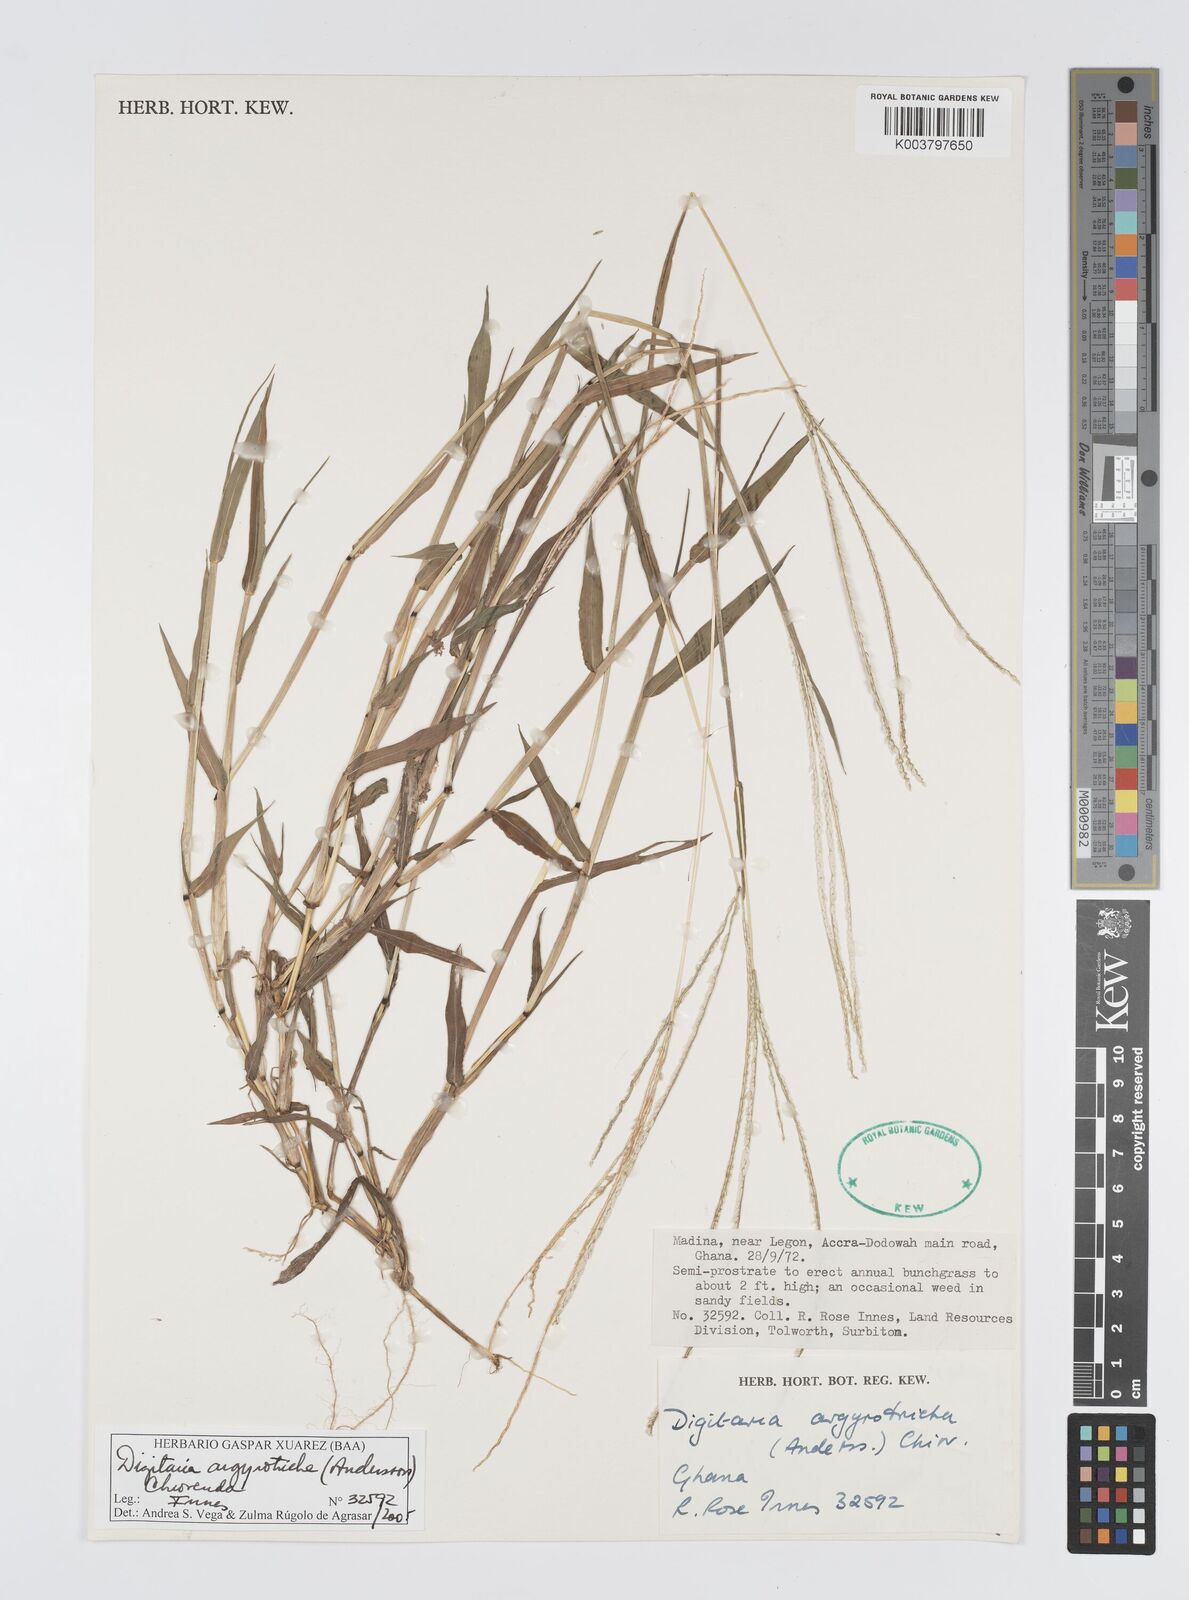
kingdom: Plantae
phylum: Tracheophyta
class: Liliopsida
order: Poales
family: Poaceae
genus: Digitaria
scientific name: Digitaria argyrotricha
